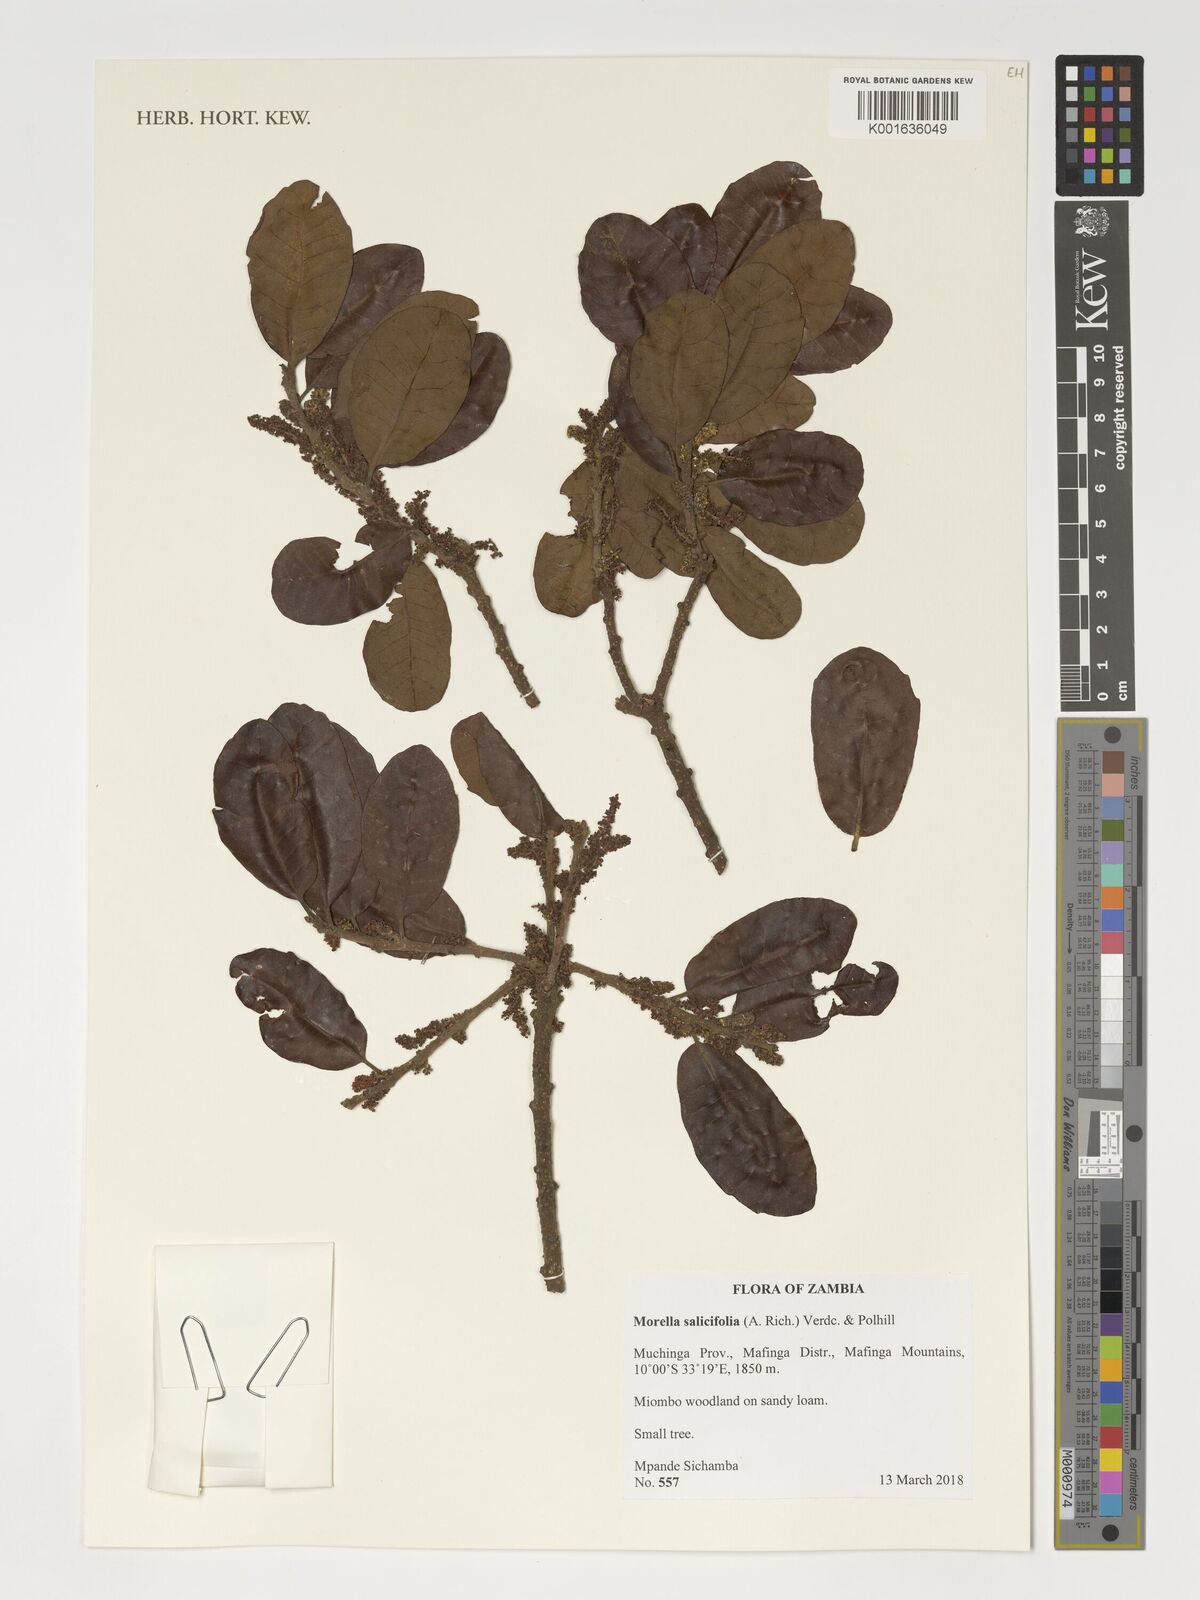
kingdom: Plantae
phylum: Tracheophyta
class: Magnoliopsida
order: Fagales
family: Myricaceae
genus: Morella
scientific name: Morella salicifolia
